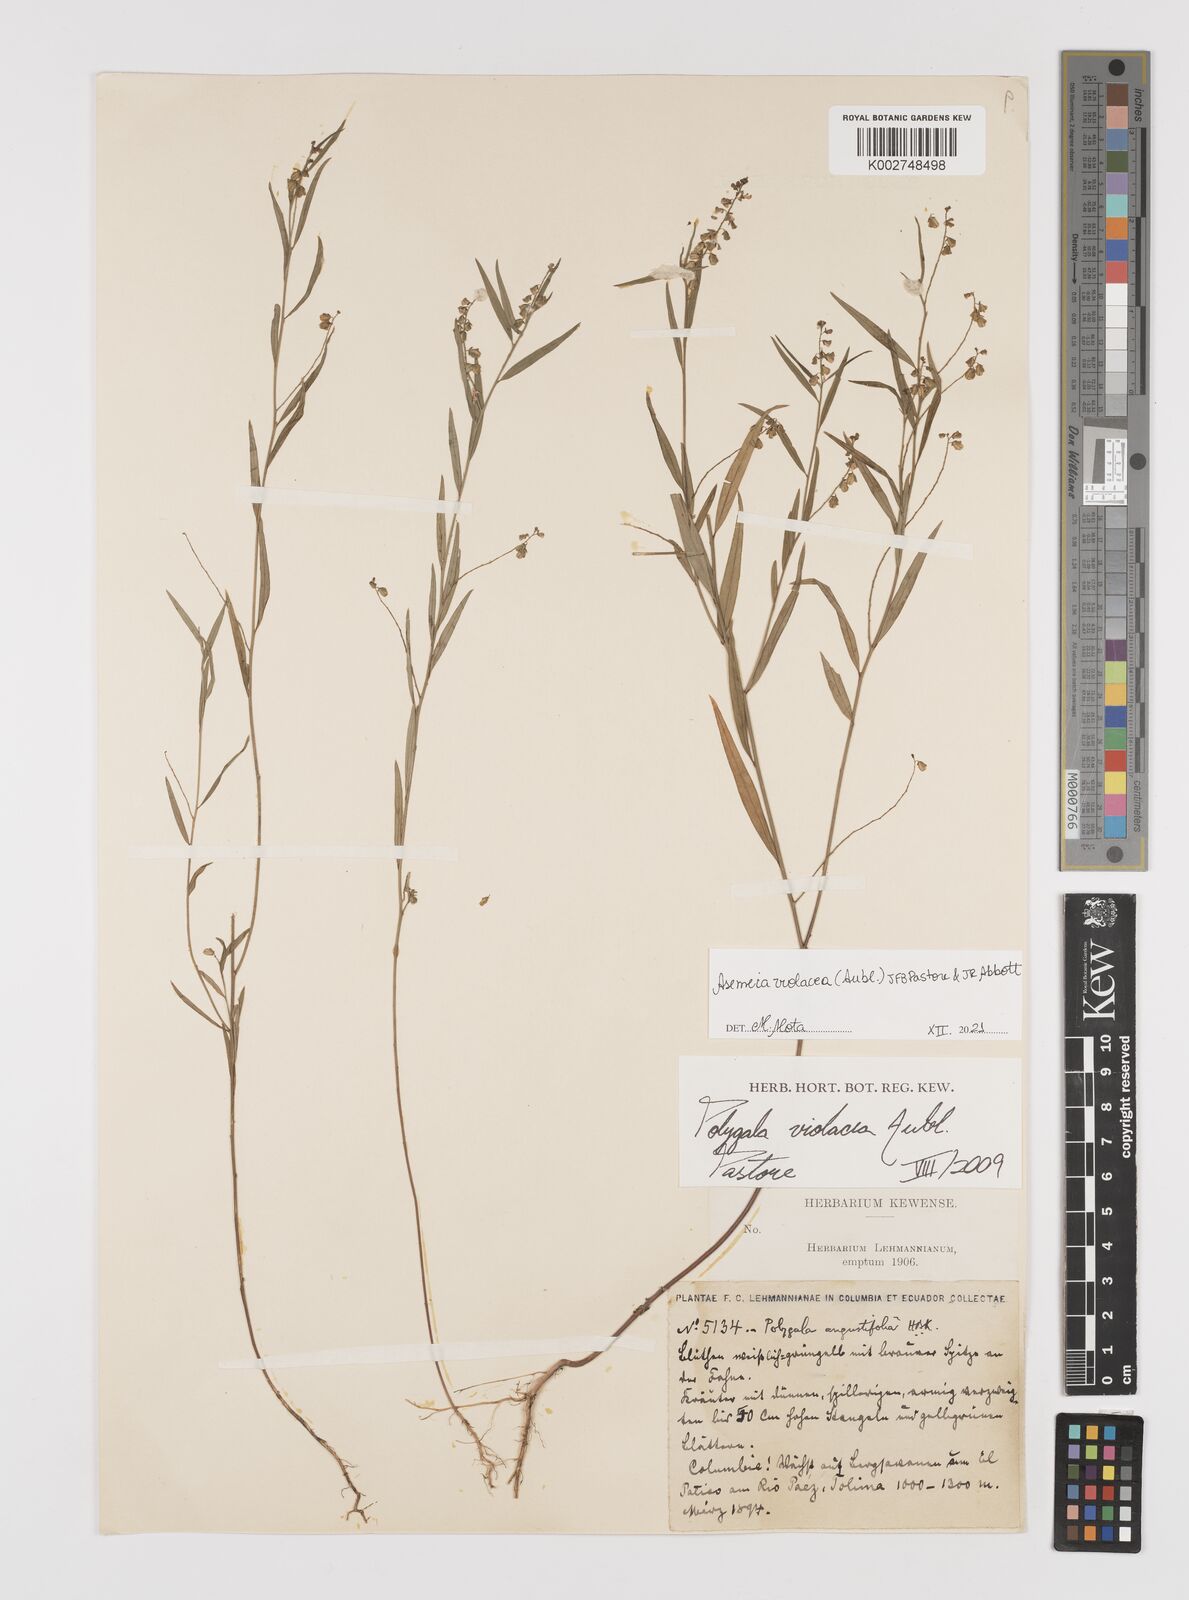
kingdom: Plantae
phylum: Tracheophyta
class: Magnoliopsida
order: Fabales
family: Polygalaceae
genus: Asemeia
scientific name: Asemeia violacea
